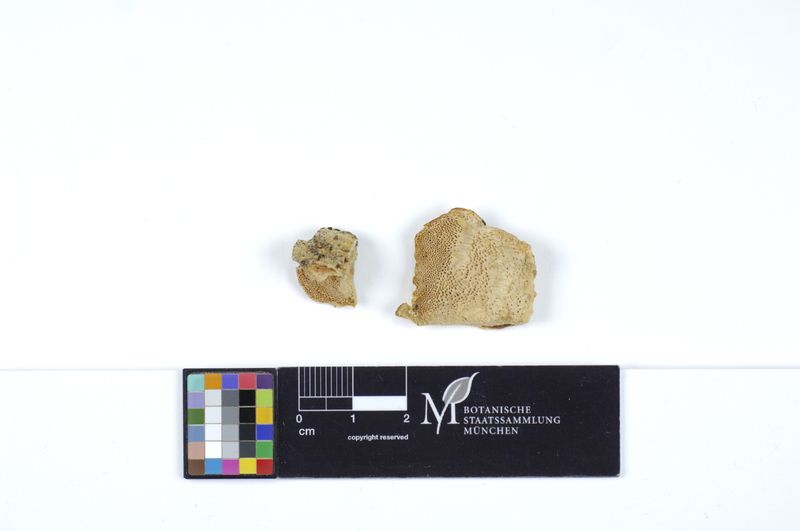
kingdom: Fungi
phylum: Basidiomycota
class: Agaricomycetes
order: Polyporales
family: Polyporaceae
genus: Diplomitoporus
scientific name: Diplomitoporus flavescens
